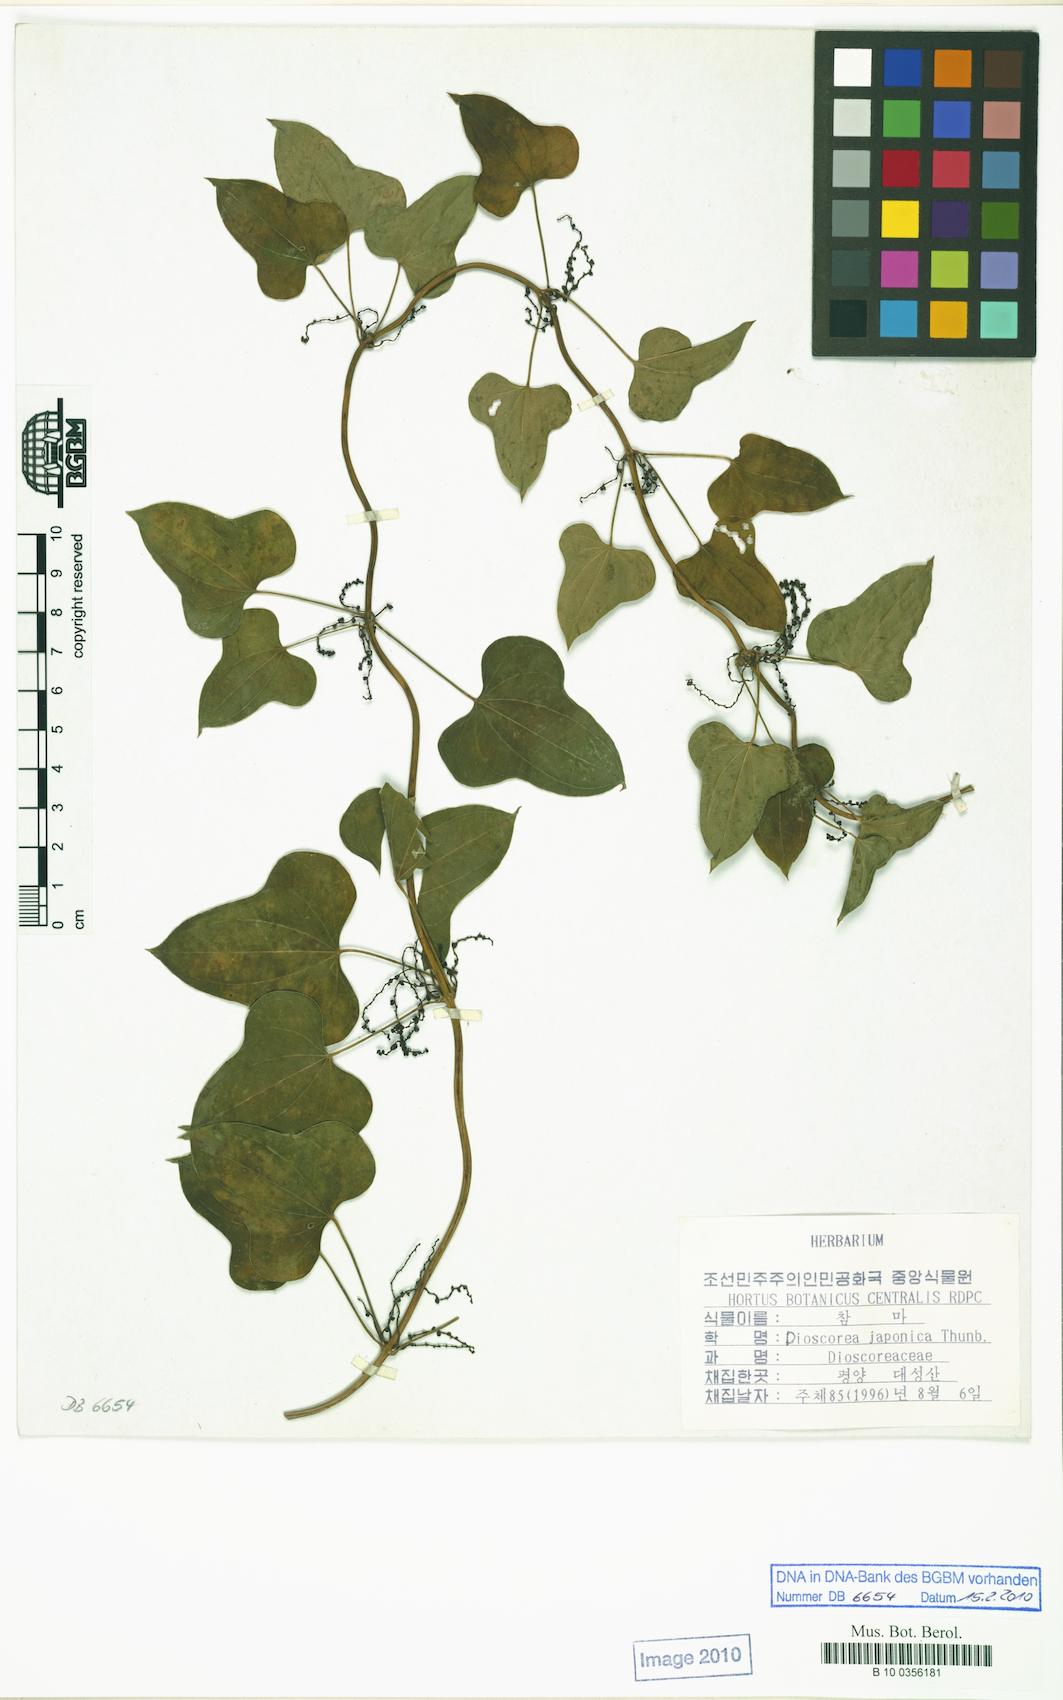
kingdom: Plantae
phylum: Tracheophyta
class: Liliopsida
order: Dioscoreales
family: Dioscoreaceae
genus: Dioscorea
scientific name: Dioscorea japonica
